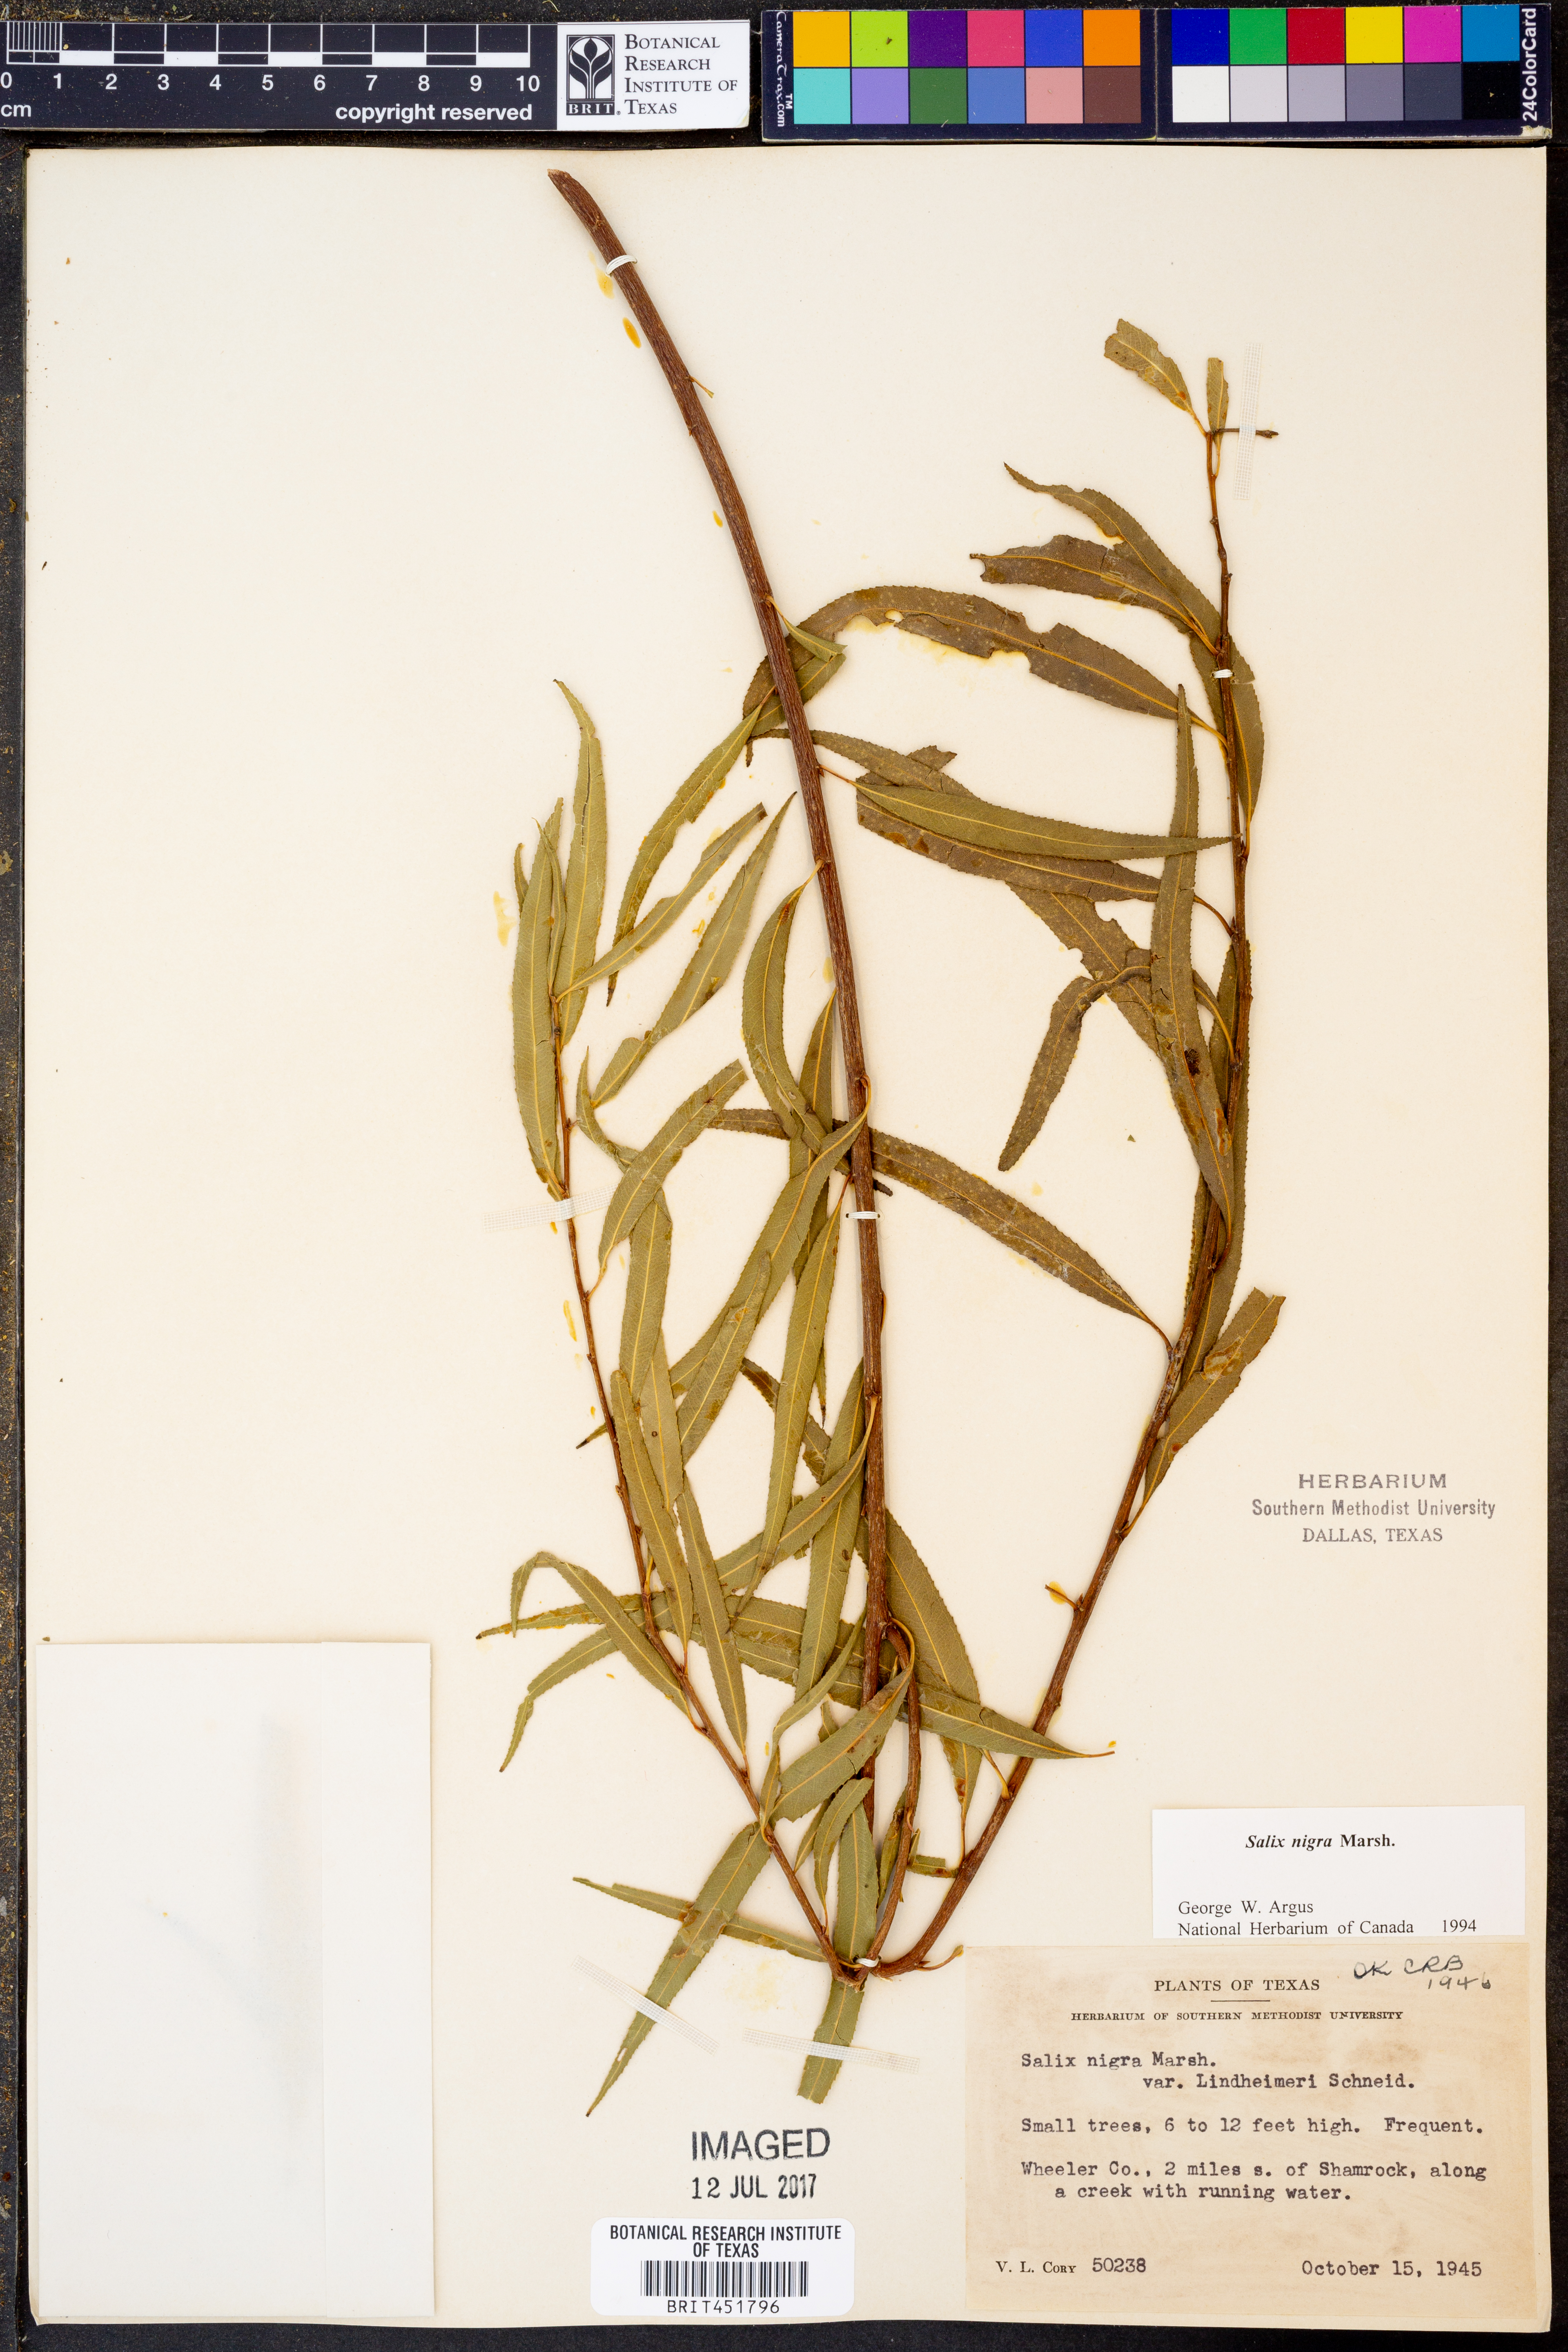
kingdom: Plantae
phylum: Tracheophyta
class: Magnoliopsida
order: Malpighiales
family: Salicaceae
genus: Salix
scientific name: Salix nigra
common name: Black willow
